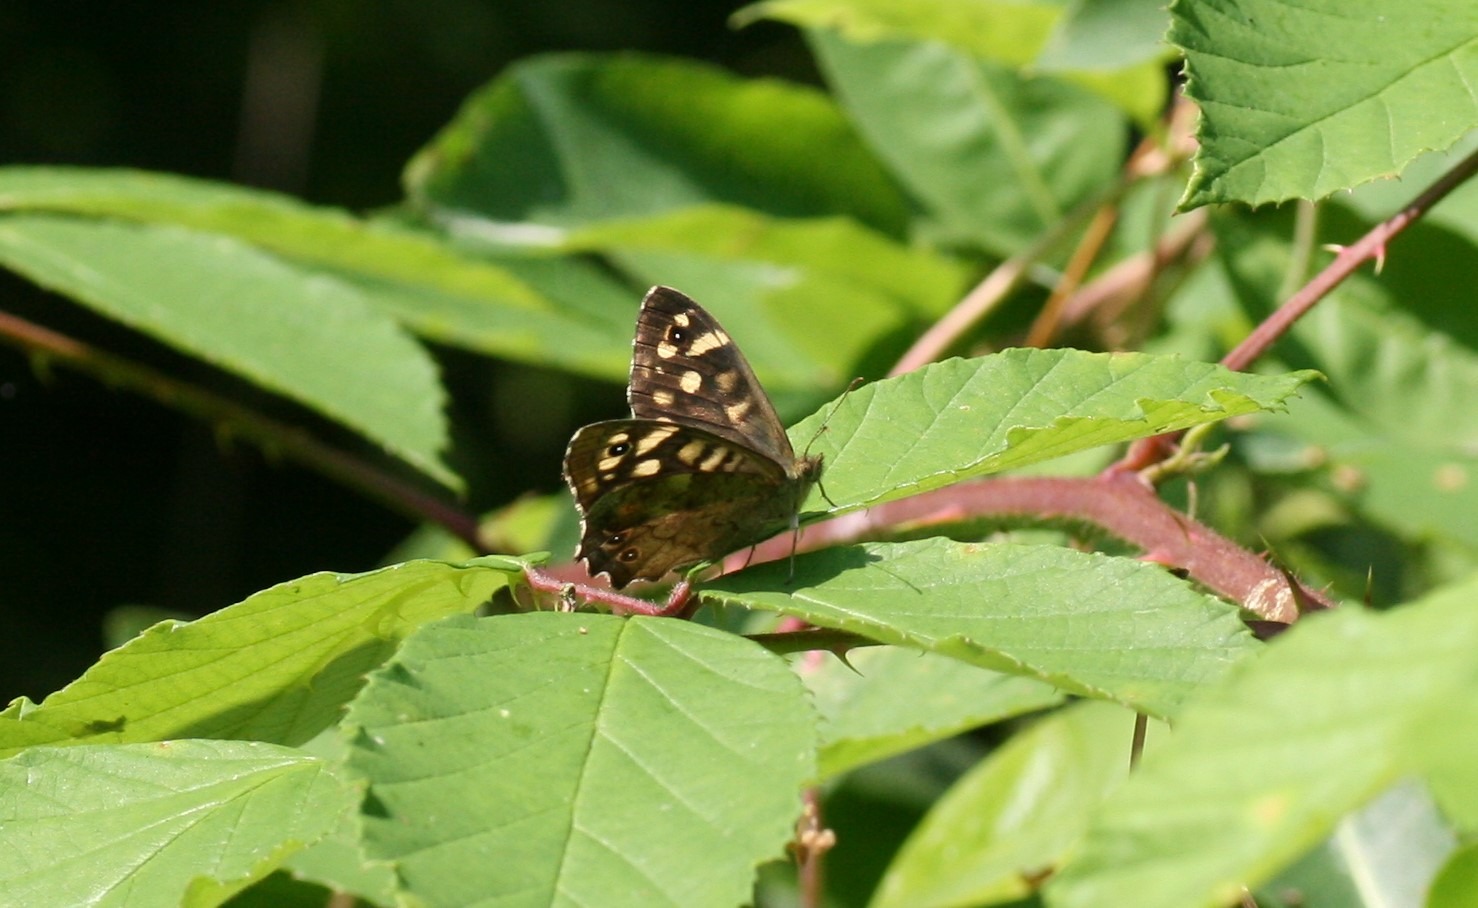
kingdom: Animalia
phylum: Arthropoda
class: Insecta
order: Lepidoptera
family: Nymphalidae
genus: Pararge
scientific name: Pararge aegeria
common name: Skovrandøje
